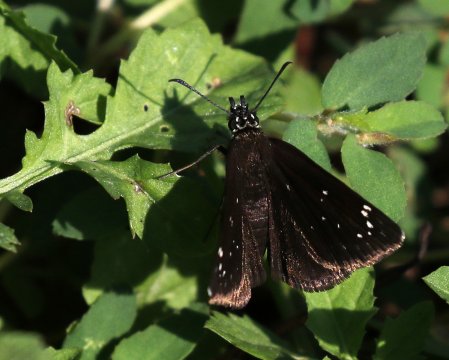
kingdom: Animalia
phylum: Arthropoda
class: Insecta
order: Lepidoptera
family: Hesperiidae
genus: Pholisora
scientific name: Pholisora catullus
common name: Common Sootywing
